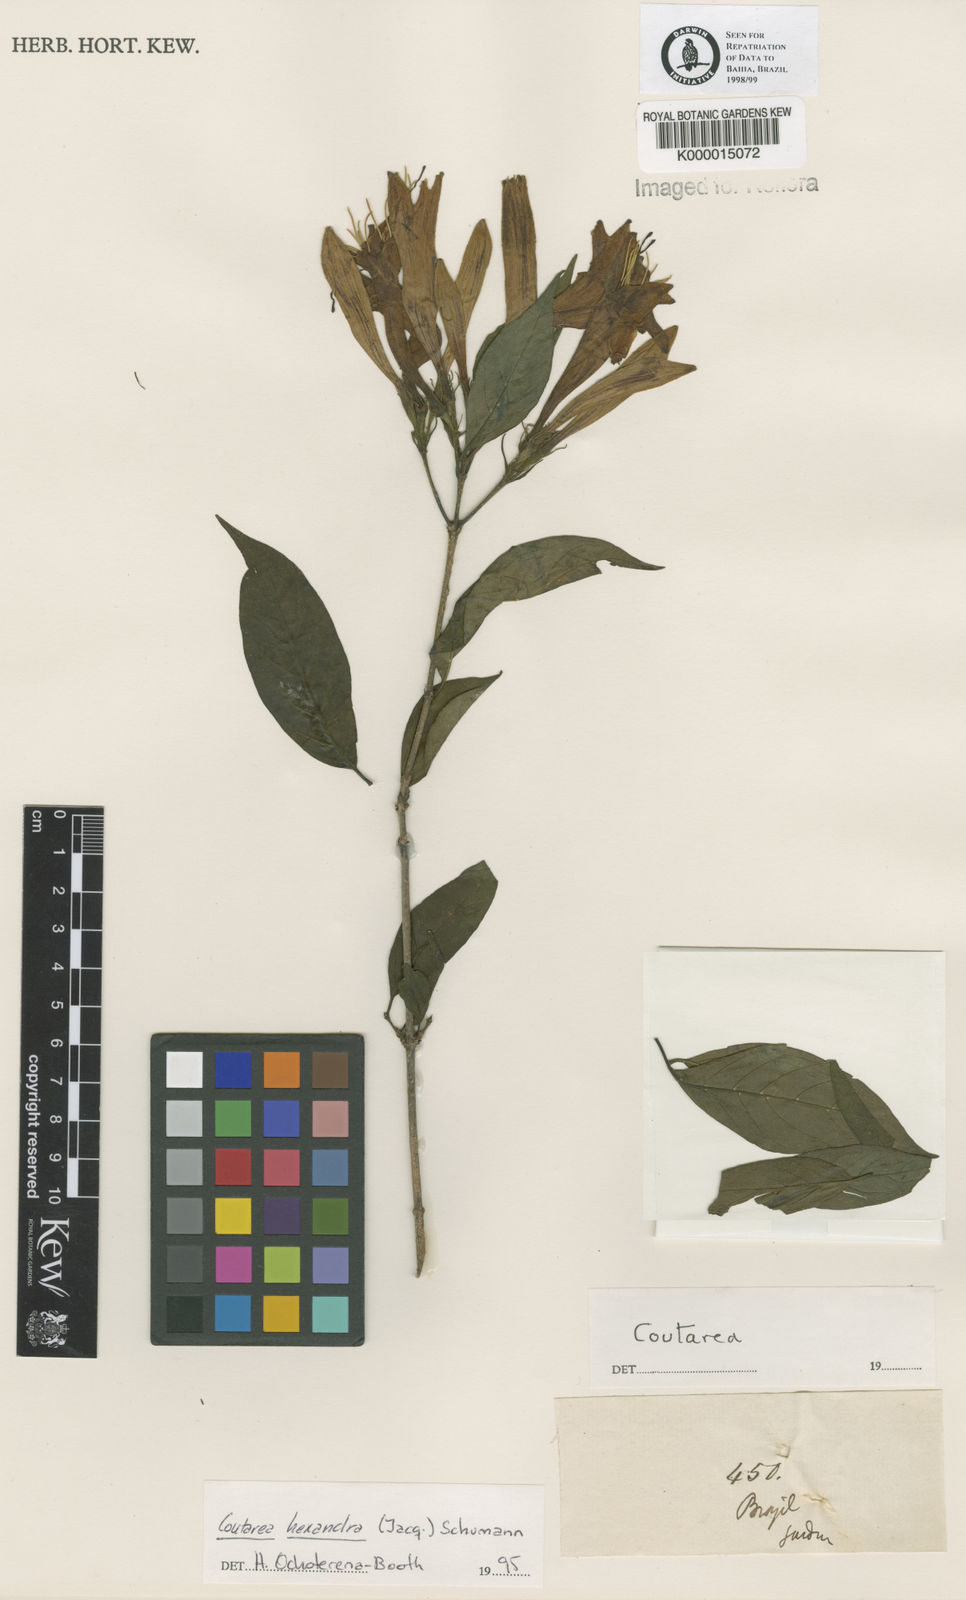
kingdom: Plantae
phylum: Tracheophyta
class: Magnoliopsida
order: Gentianales
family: Rubiaceae
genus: Coutarea
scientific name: Coutarea hexandra
